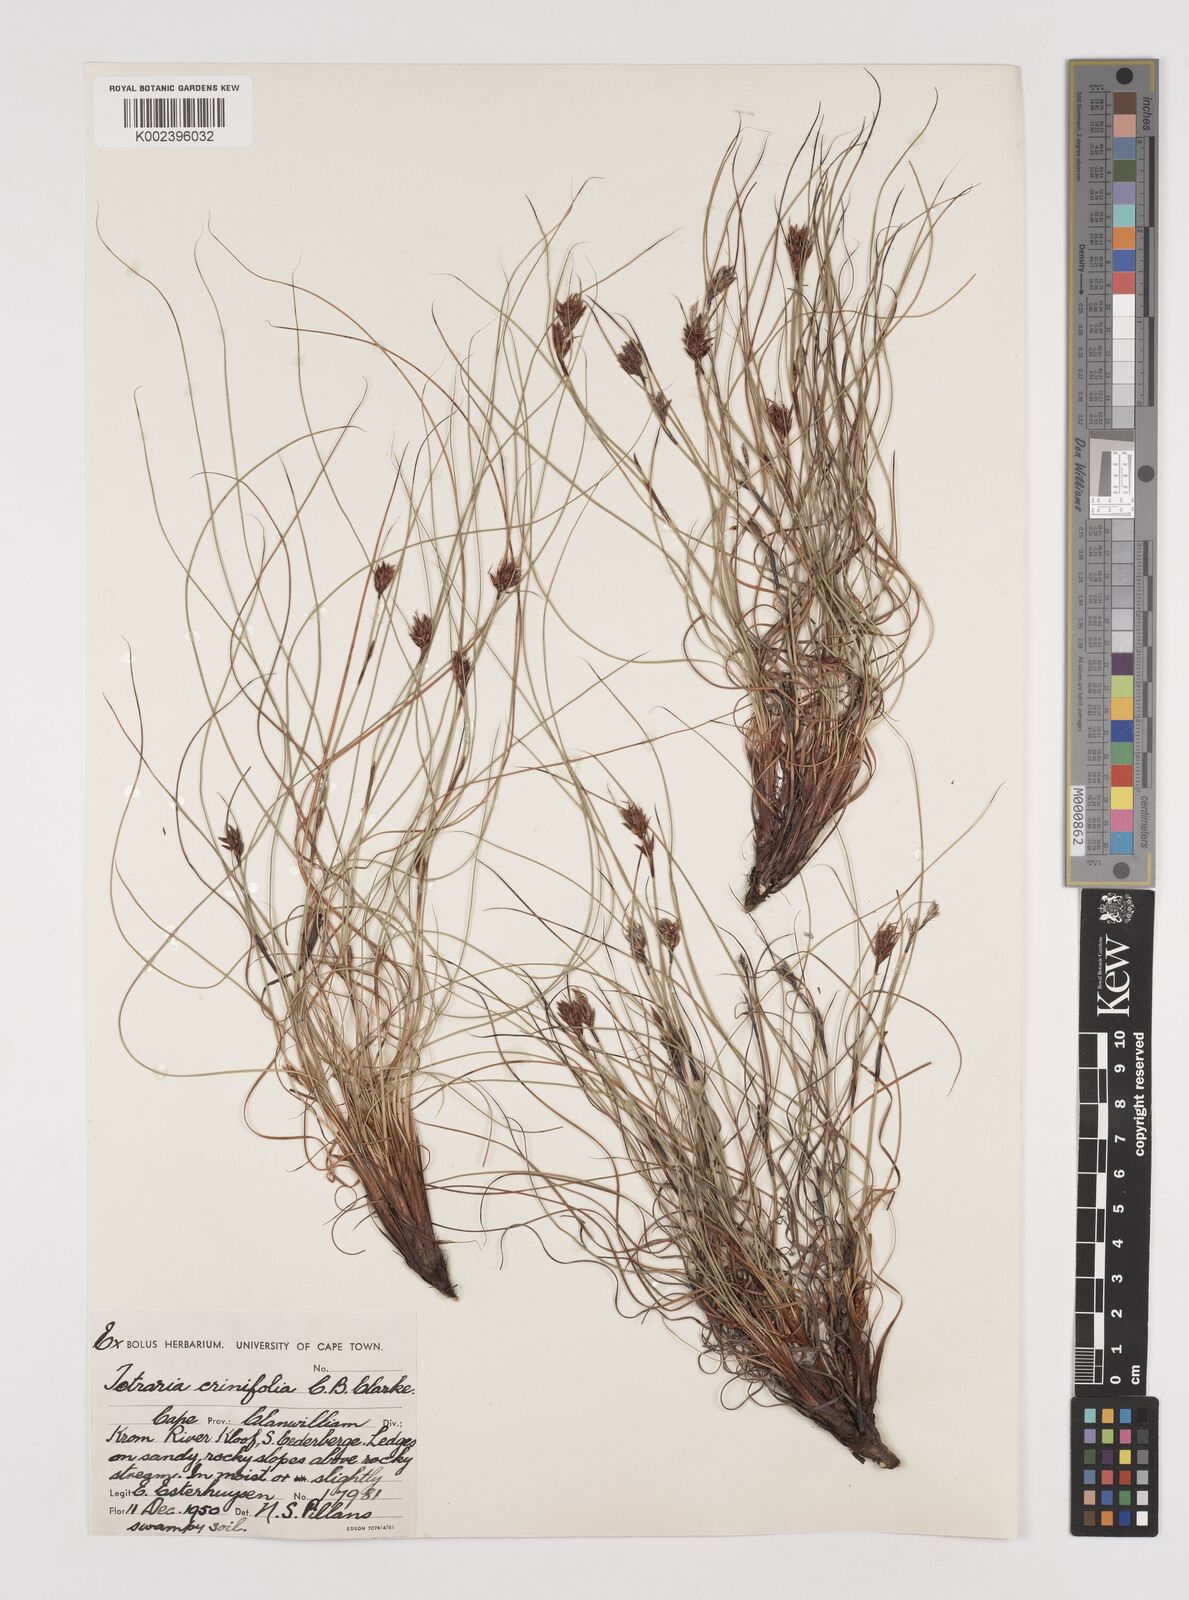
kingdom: Plantae
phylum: Tracheophyta
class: Liliopsida
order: Poales
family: Cyperaceae
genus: Tetraria
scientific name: Tetraria crinifolia
